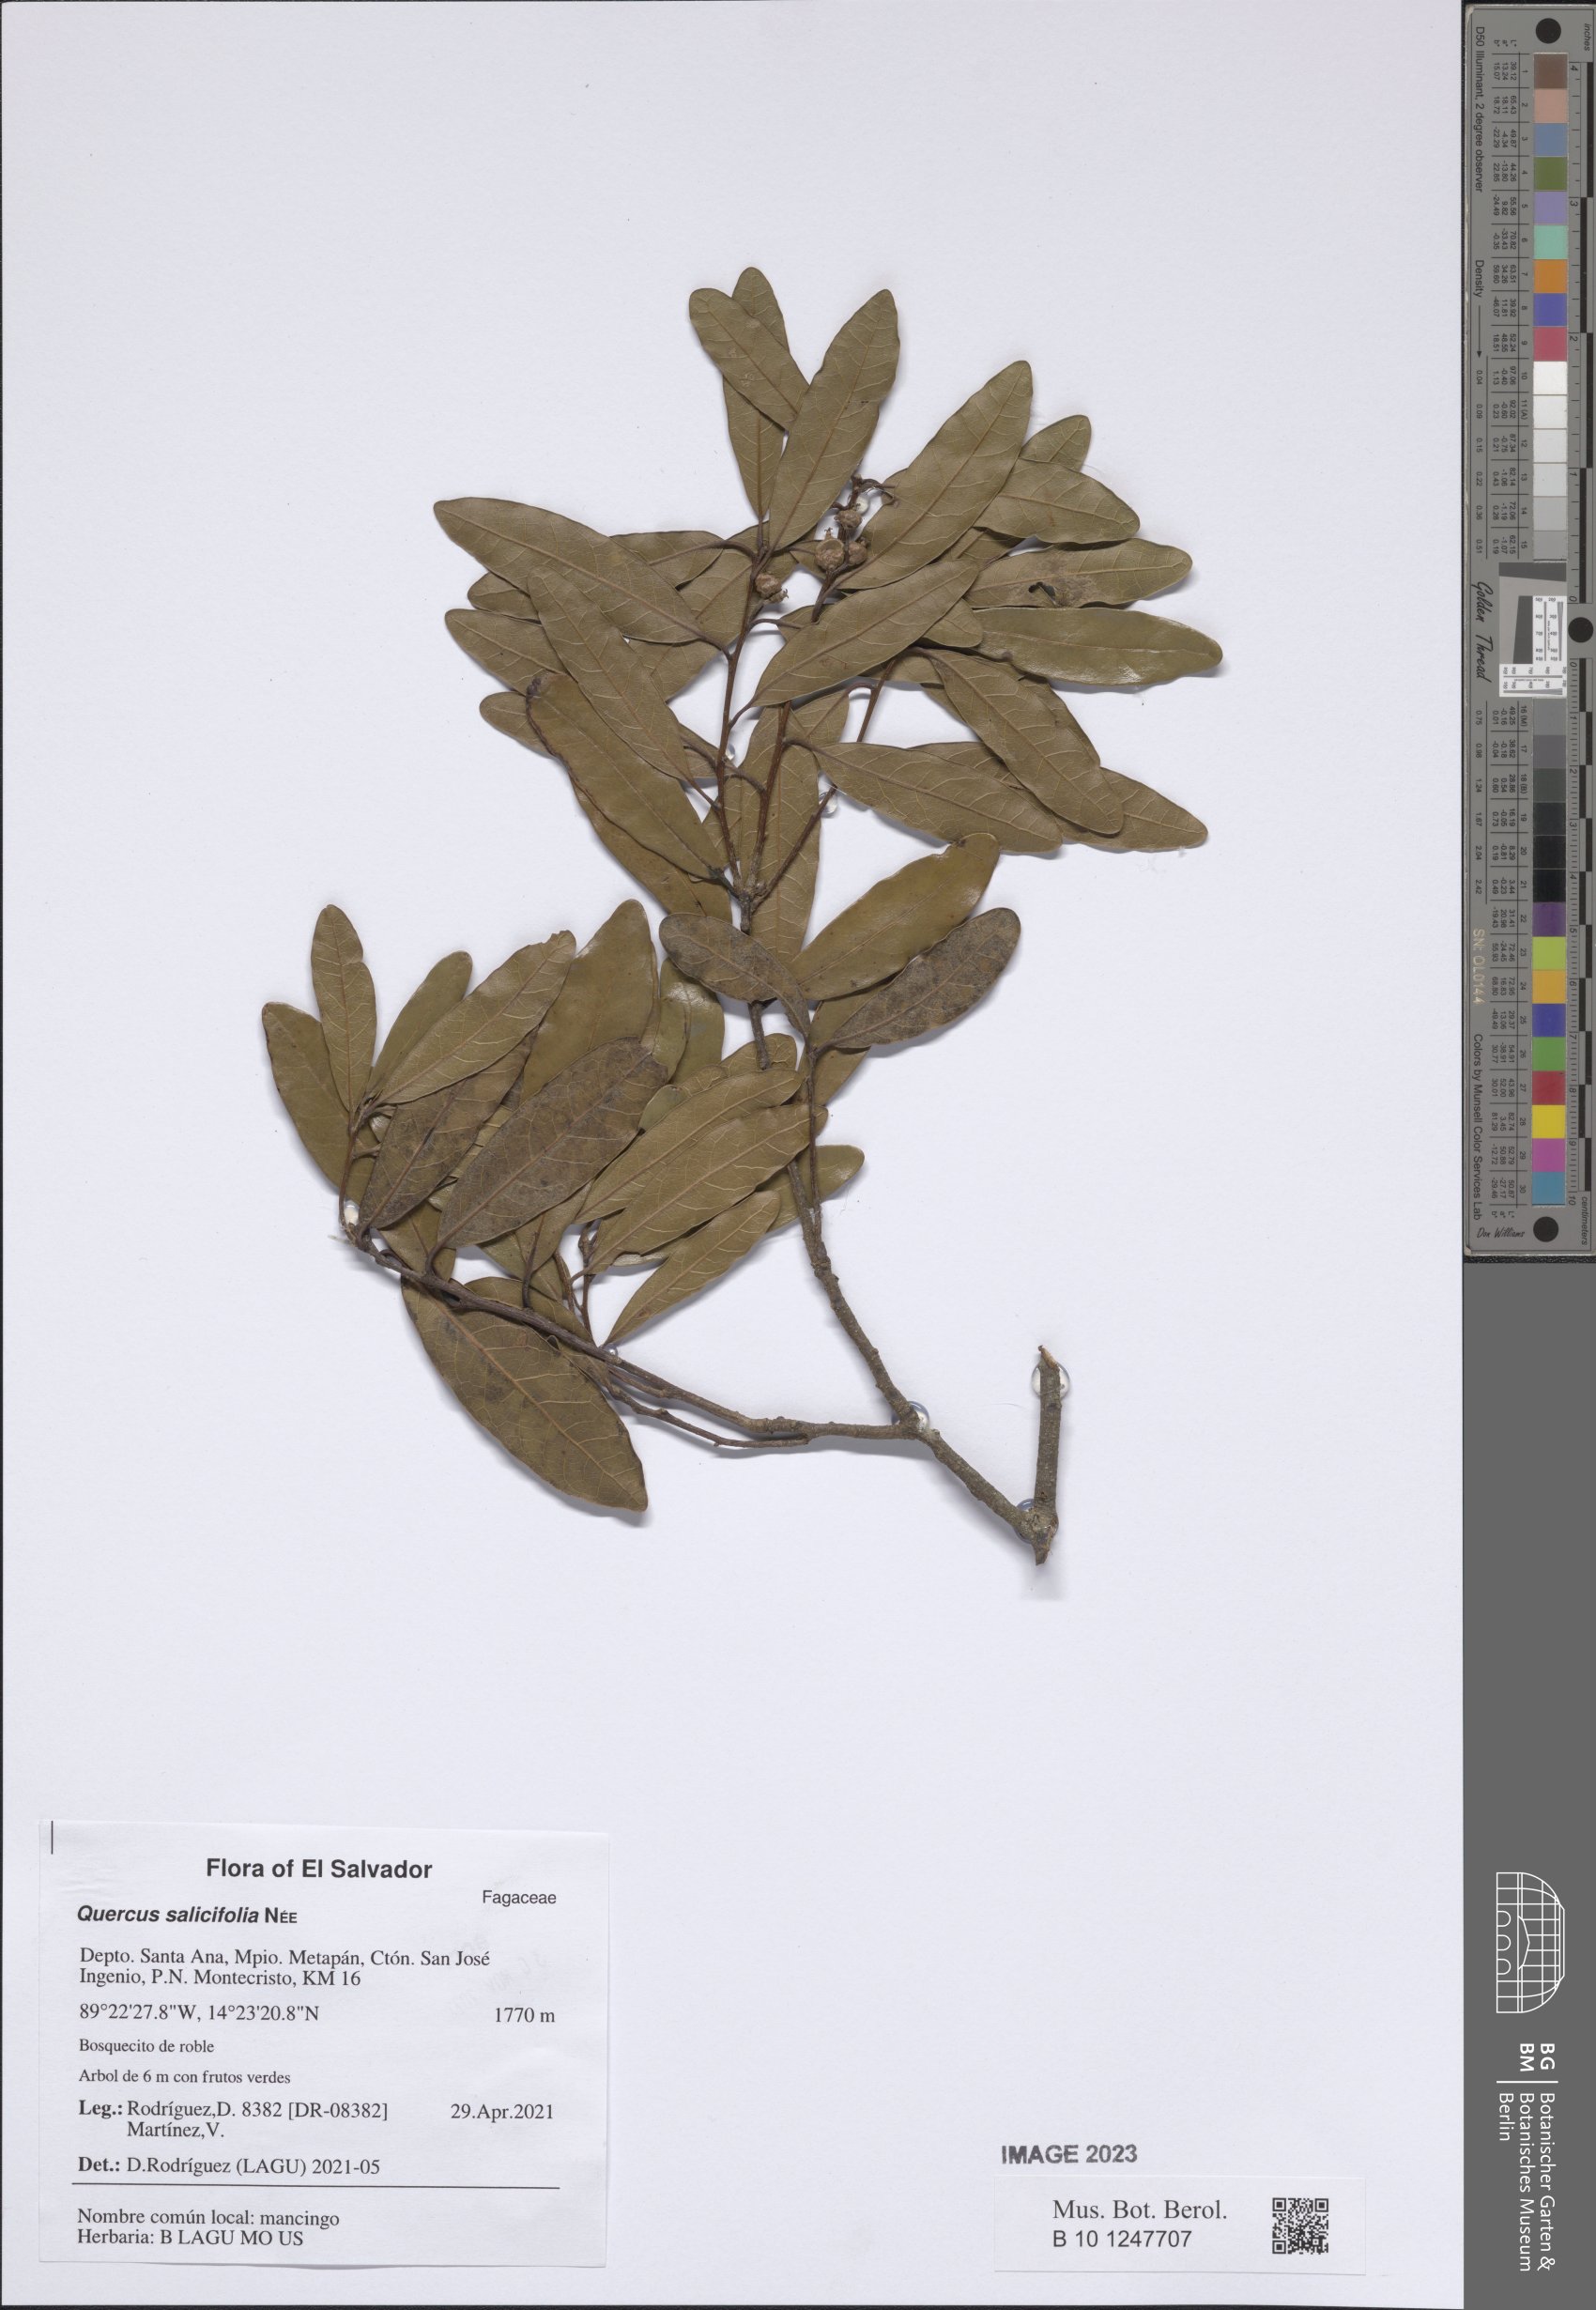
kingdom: Plantae
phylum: Tracheophyta
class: Magnoliopsida
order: Fagales
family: Fagaceae
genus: Quercus
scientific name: Quercus salicifolia
